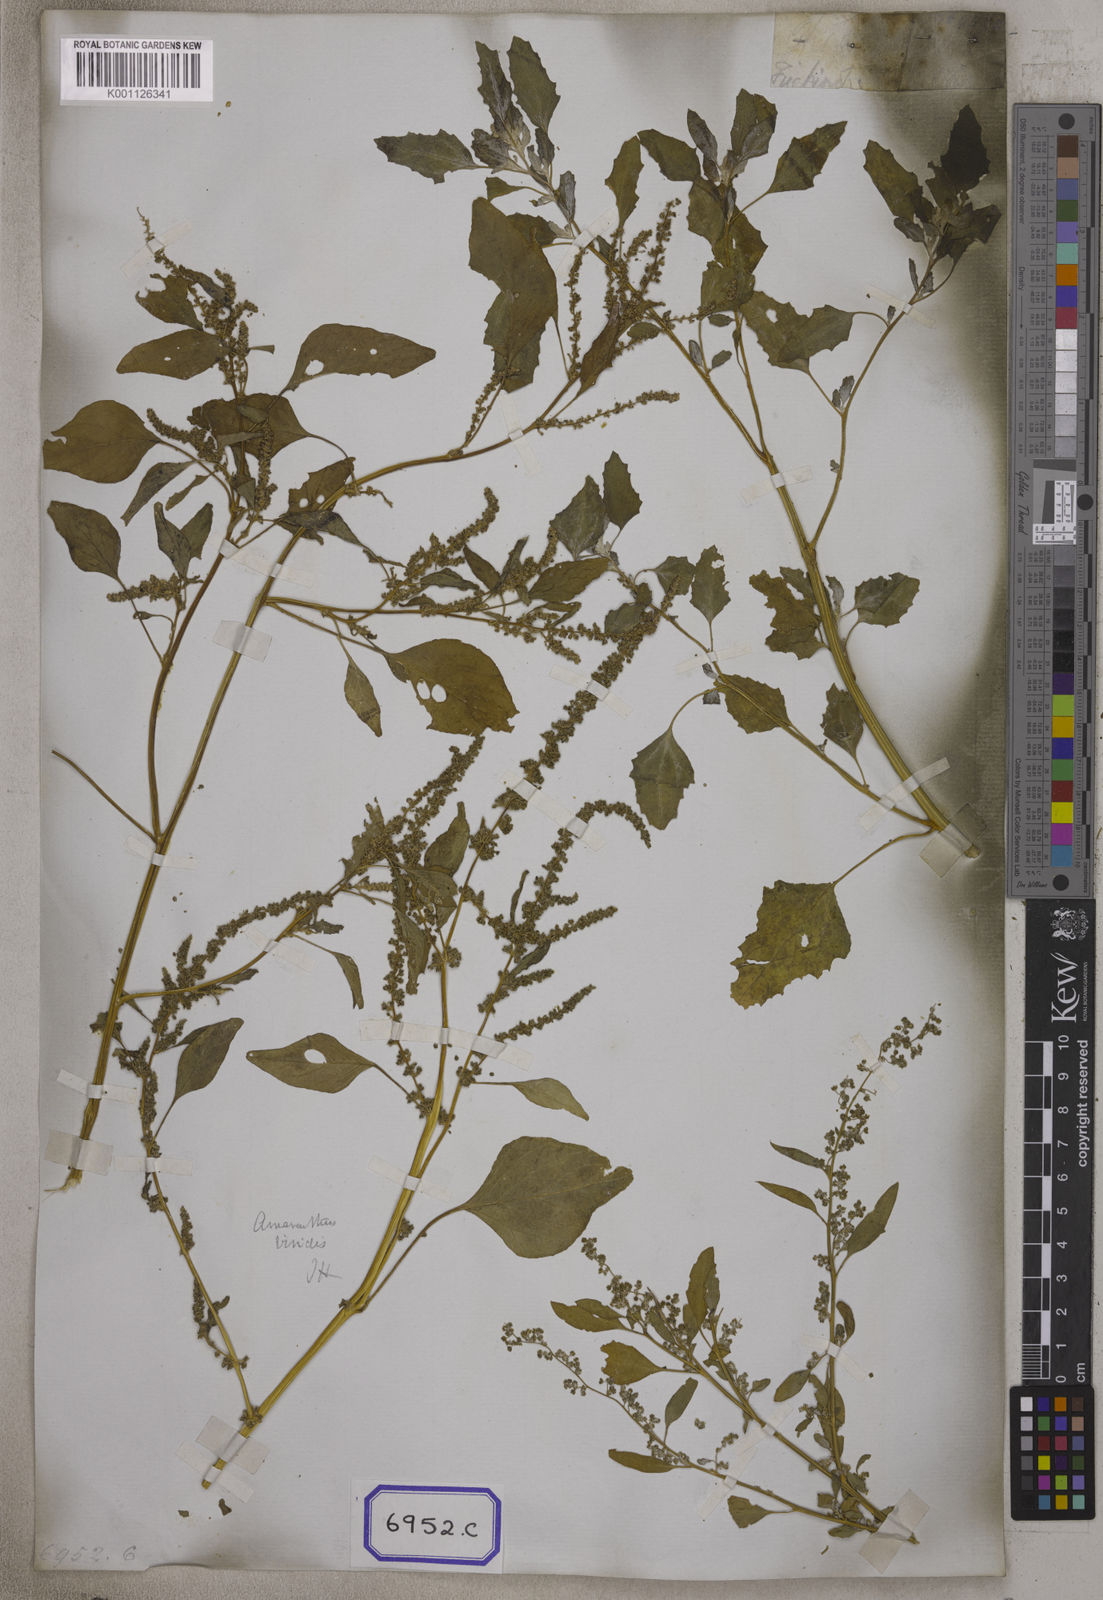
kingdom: Plantae
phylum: Tracheophyta
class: Magnoliopsida
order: Caryophyllales
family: Amaranthaceae
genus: Chenopodium
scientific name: Chenopodium album
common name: Fat-hen
